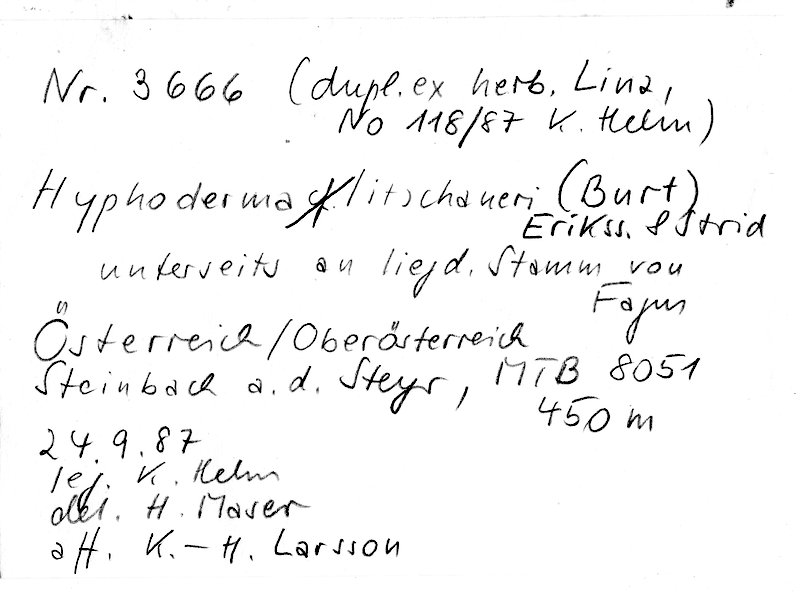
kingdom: Plantae
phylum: Tracheophyta
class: Magnoliopsida
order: Fagales
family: Fagaceae
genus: Fagus
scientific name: Fagus sylvatica
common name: Beech
